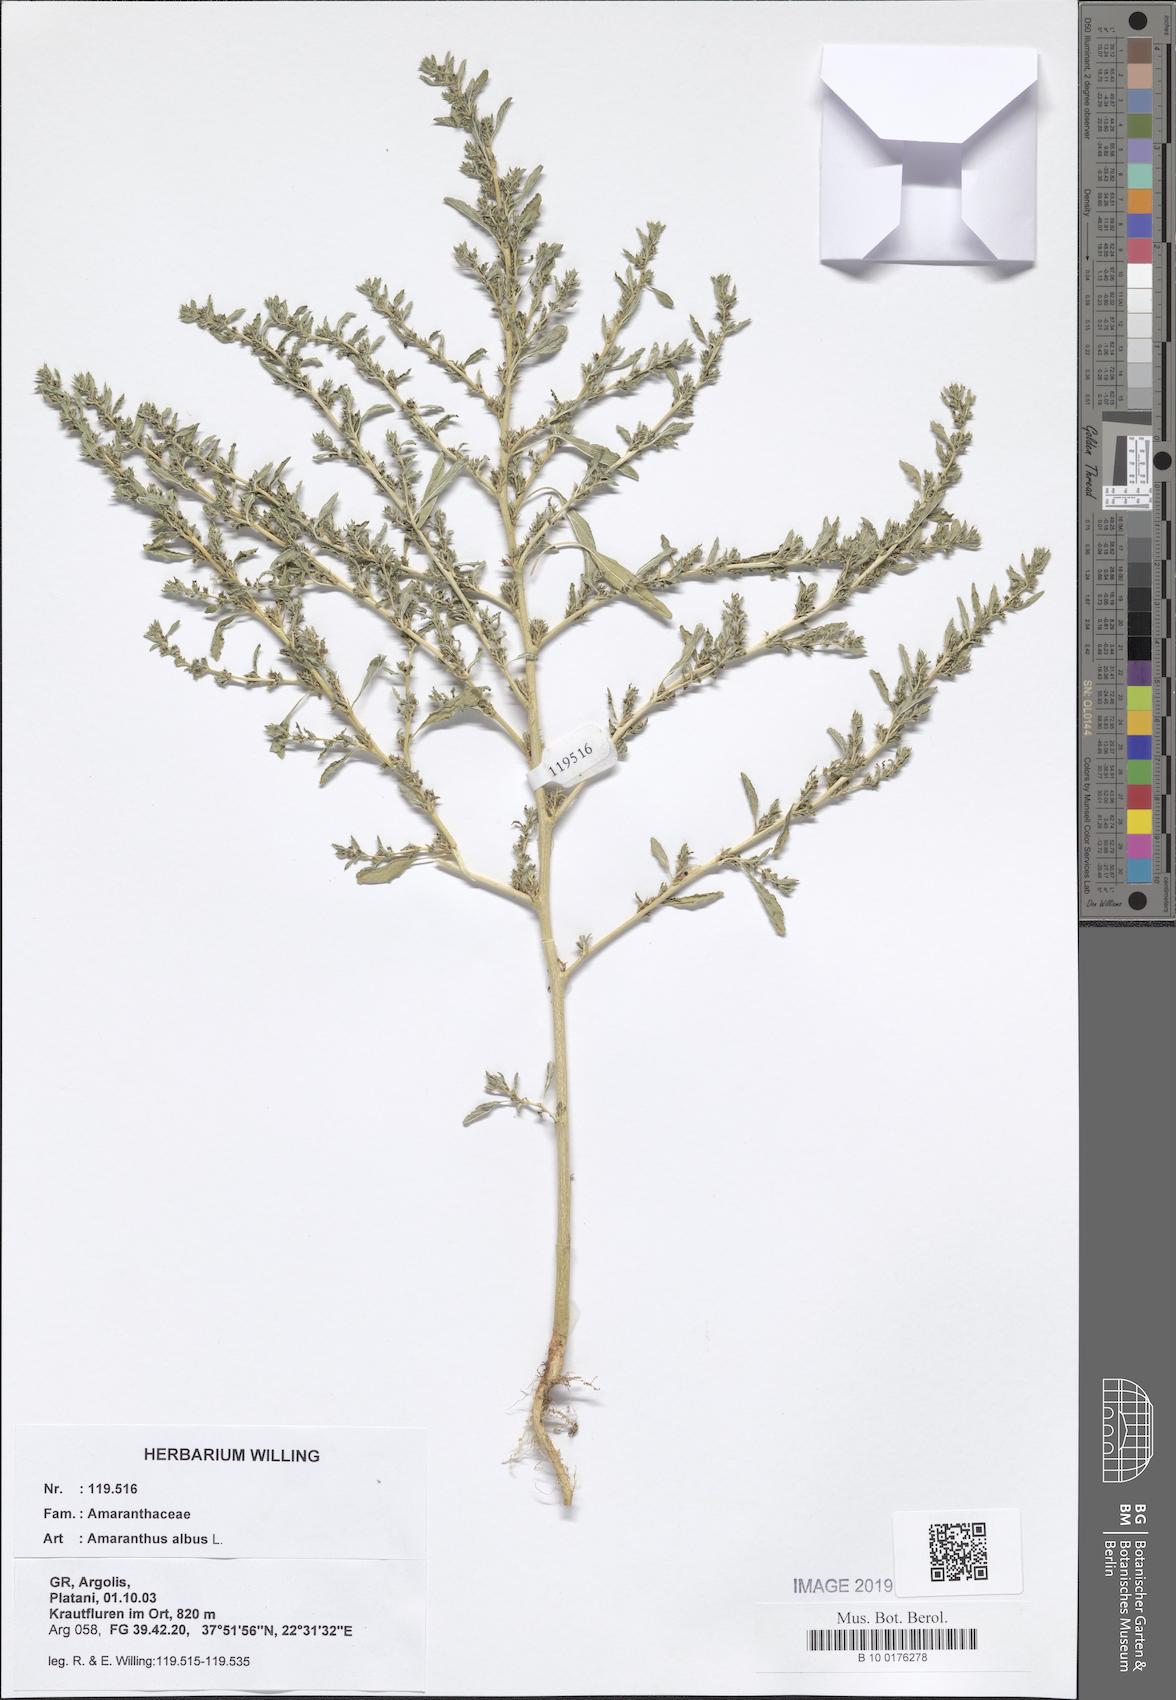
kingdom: Plantae
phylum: Tracheophyta
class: Magnoliopsida
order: Caryophyllales
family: Amaranthaceae
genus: Amaranthus
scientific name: Amaranthus albus
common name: White pigweed
